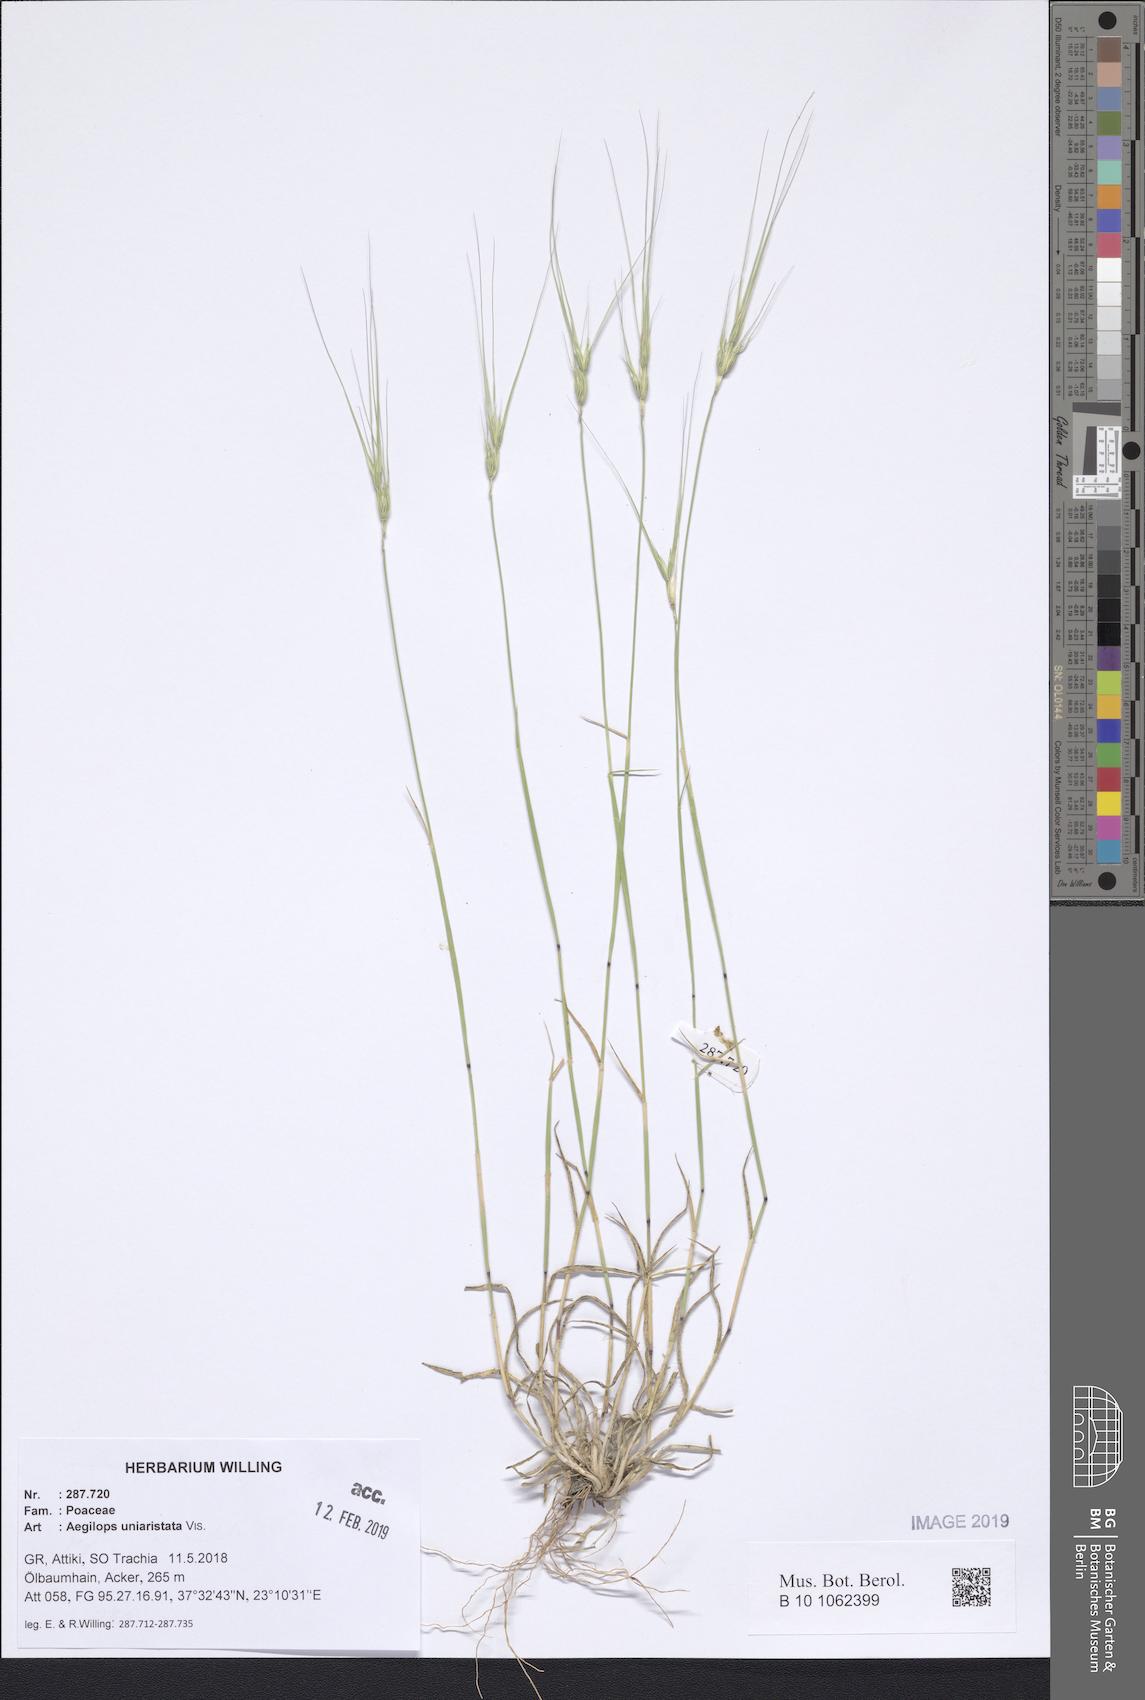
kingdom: Plantae
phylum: Tracheophyta
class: Liliopsida
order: Poales
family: Poaceae
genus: Aegilops
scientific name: Aegilops uniaristata
